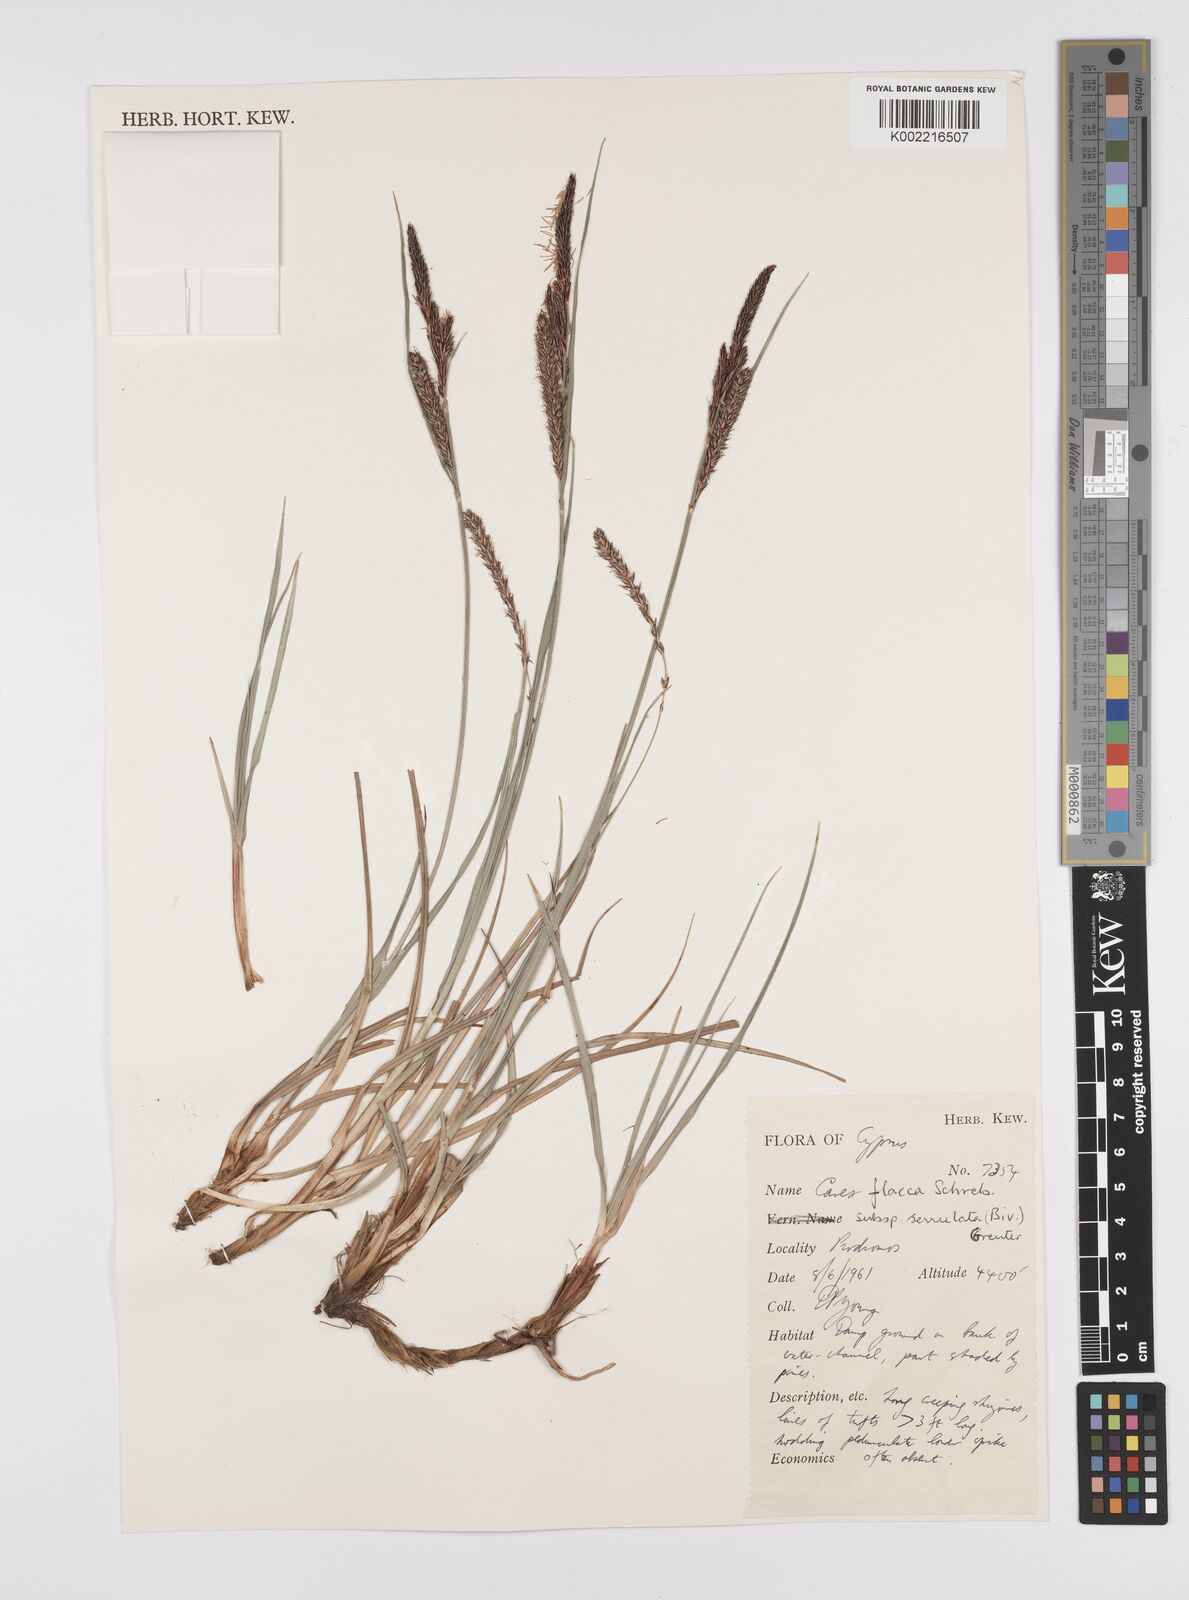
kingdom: Plantae
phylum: Tracheophyta
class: Liliopsida
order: Poales
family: Cyperaceae
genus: Carex
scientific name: Carex flacca
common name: Glaucous sedge
